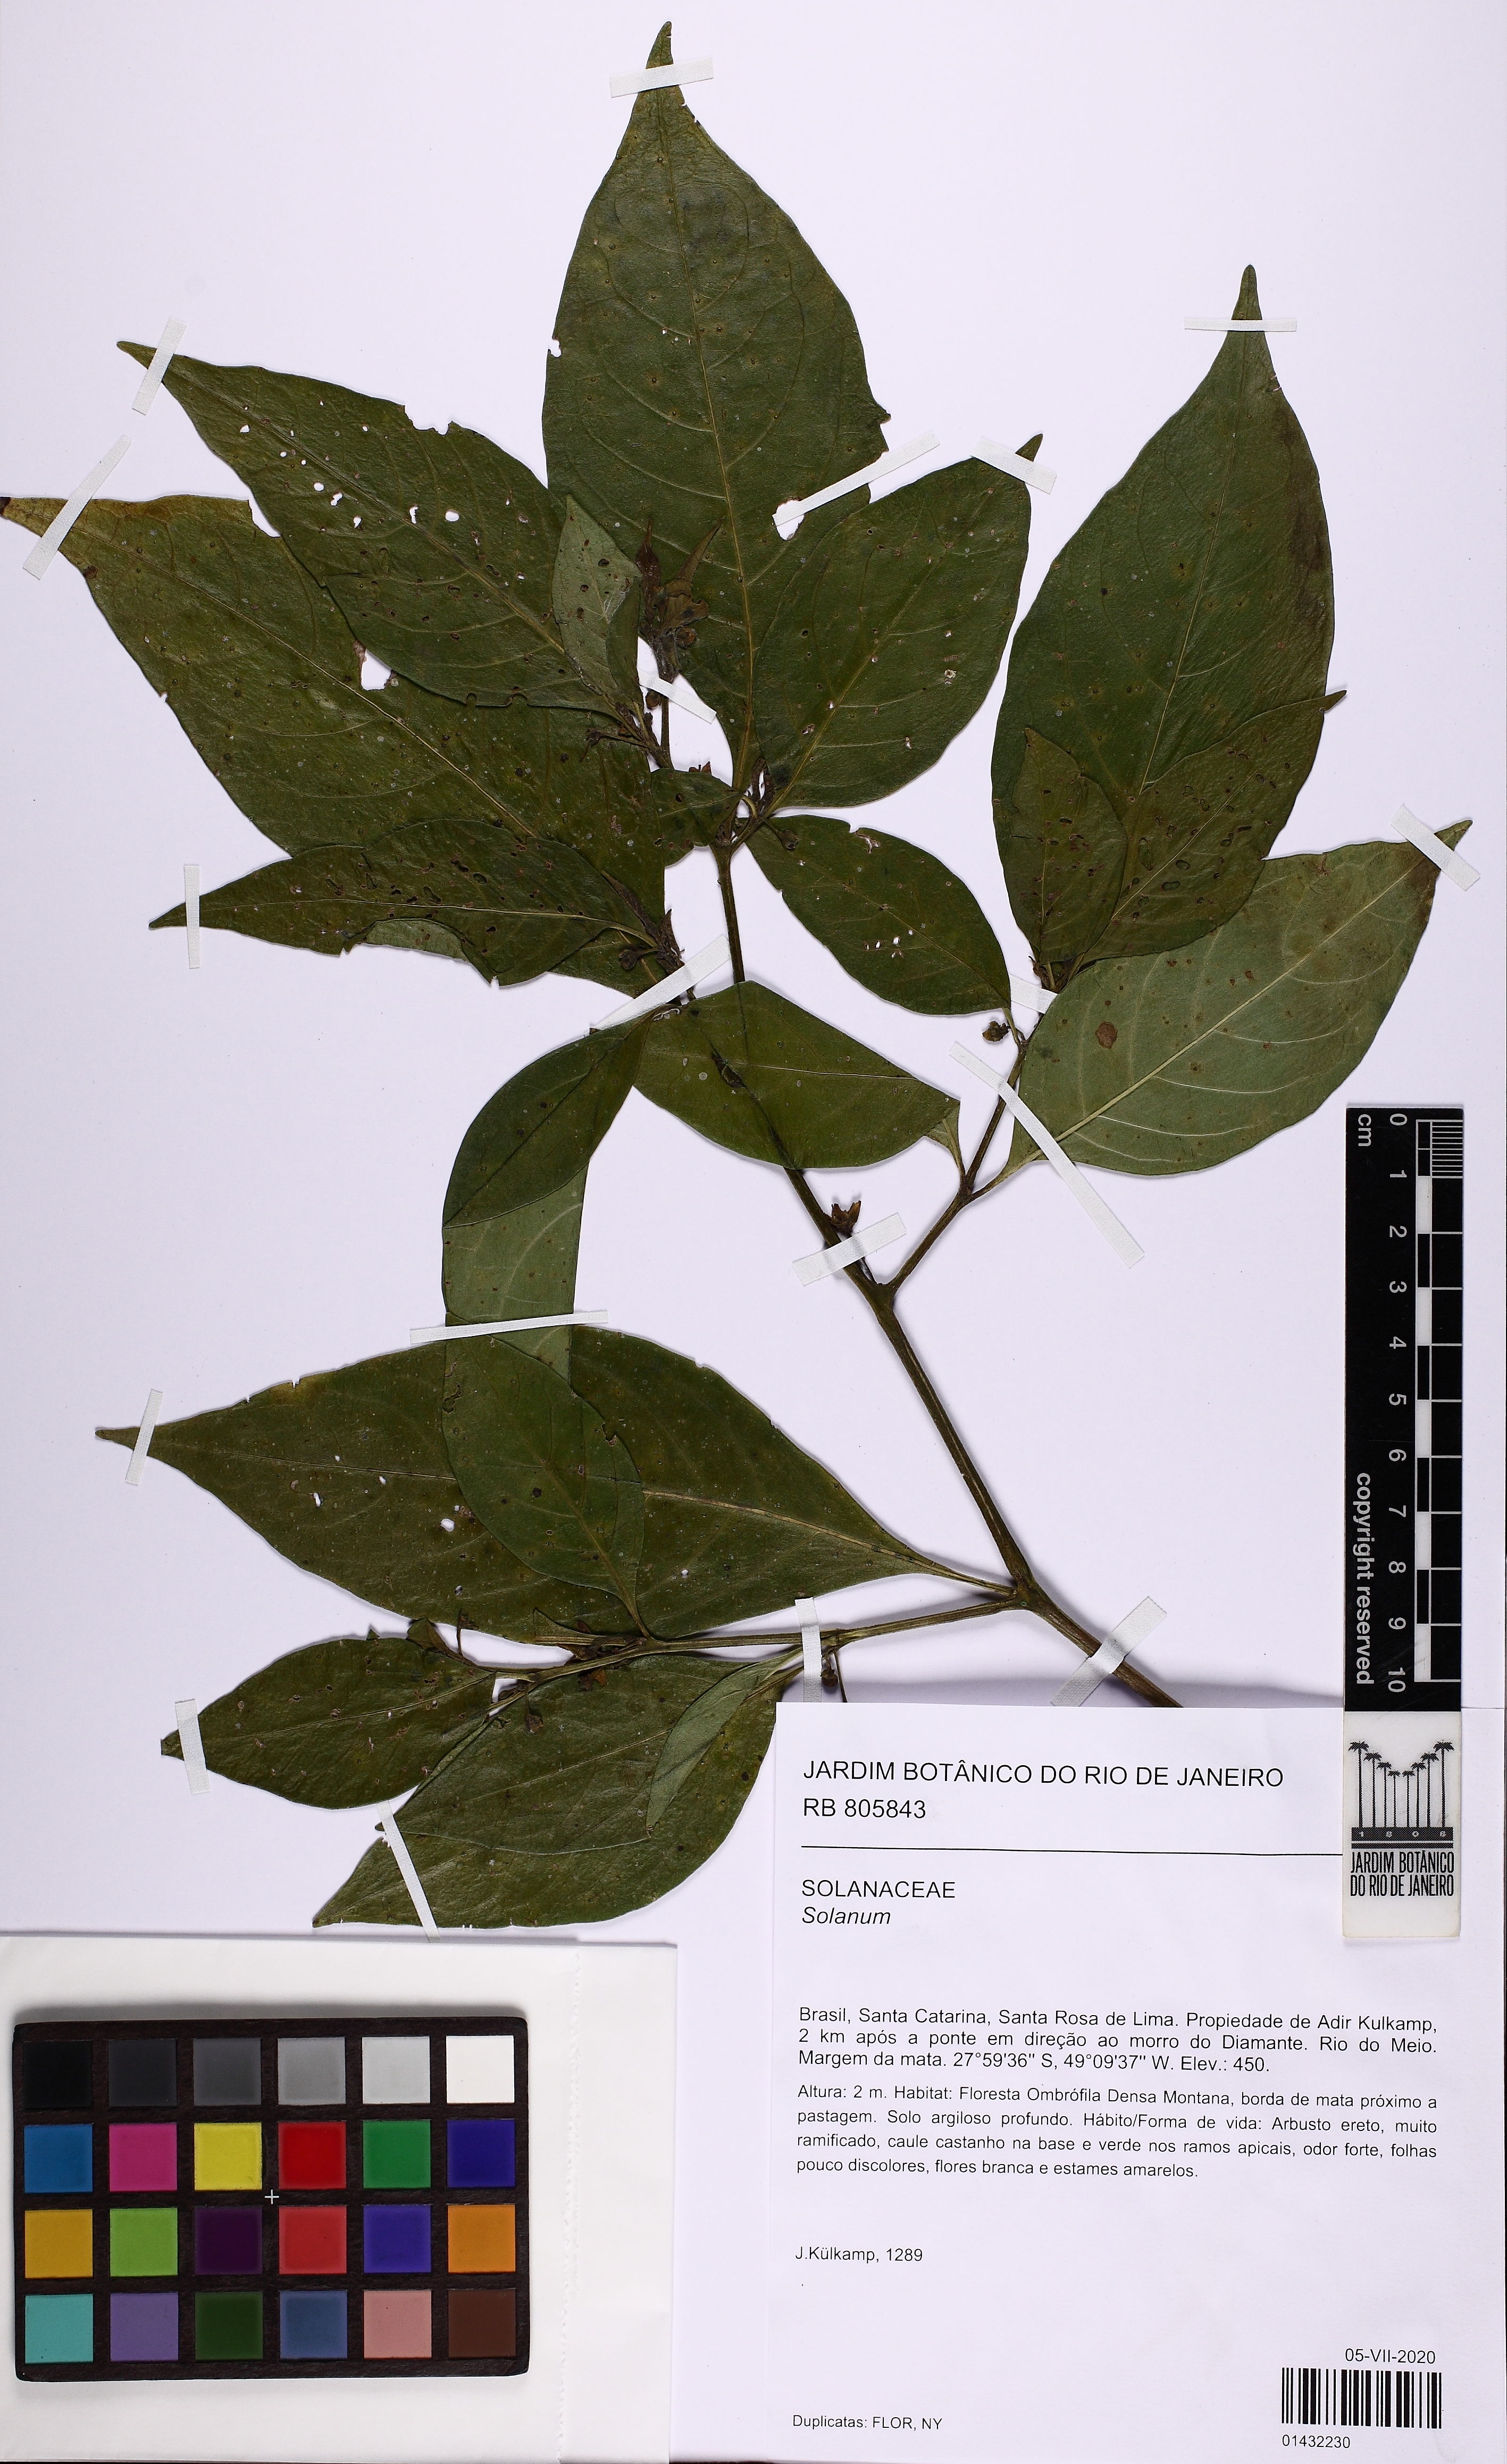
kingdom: Plantae
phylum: Tracheophyta
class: Magnoliopsida
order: Solanales
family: Solanaceae
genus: Solanum
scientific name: Solanum
